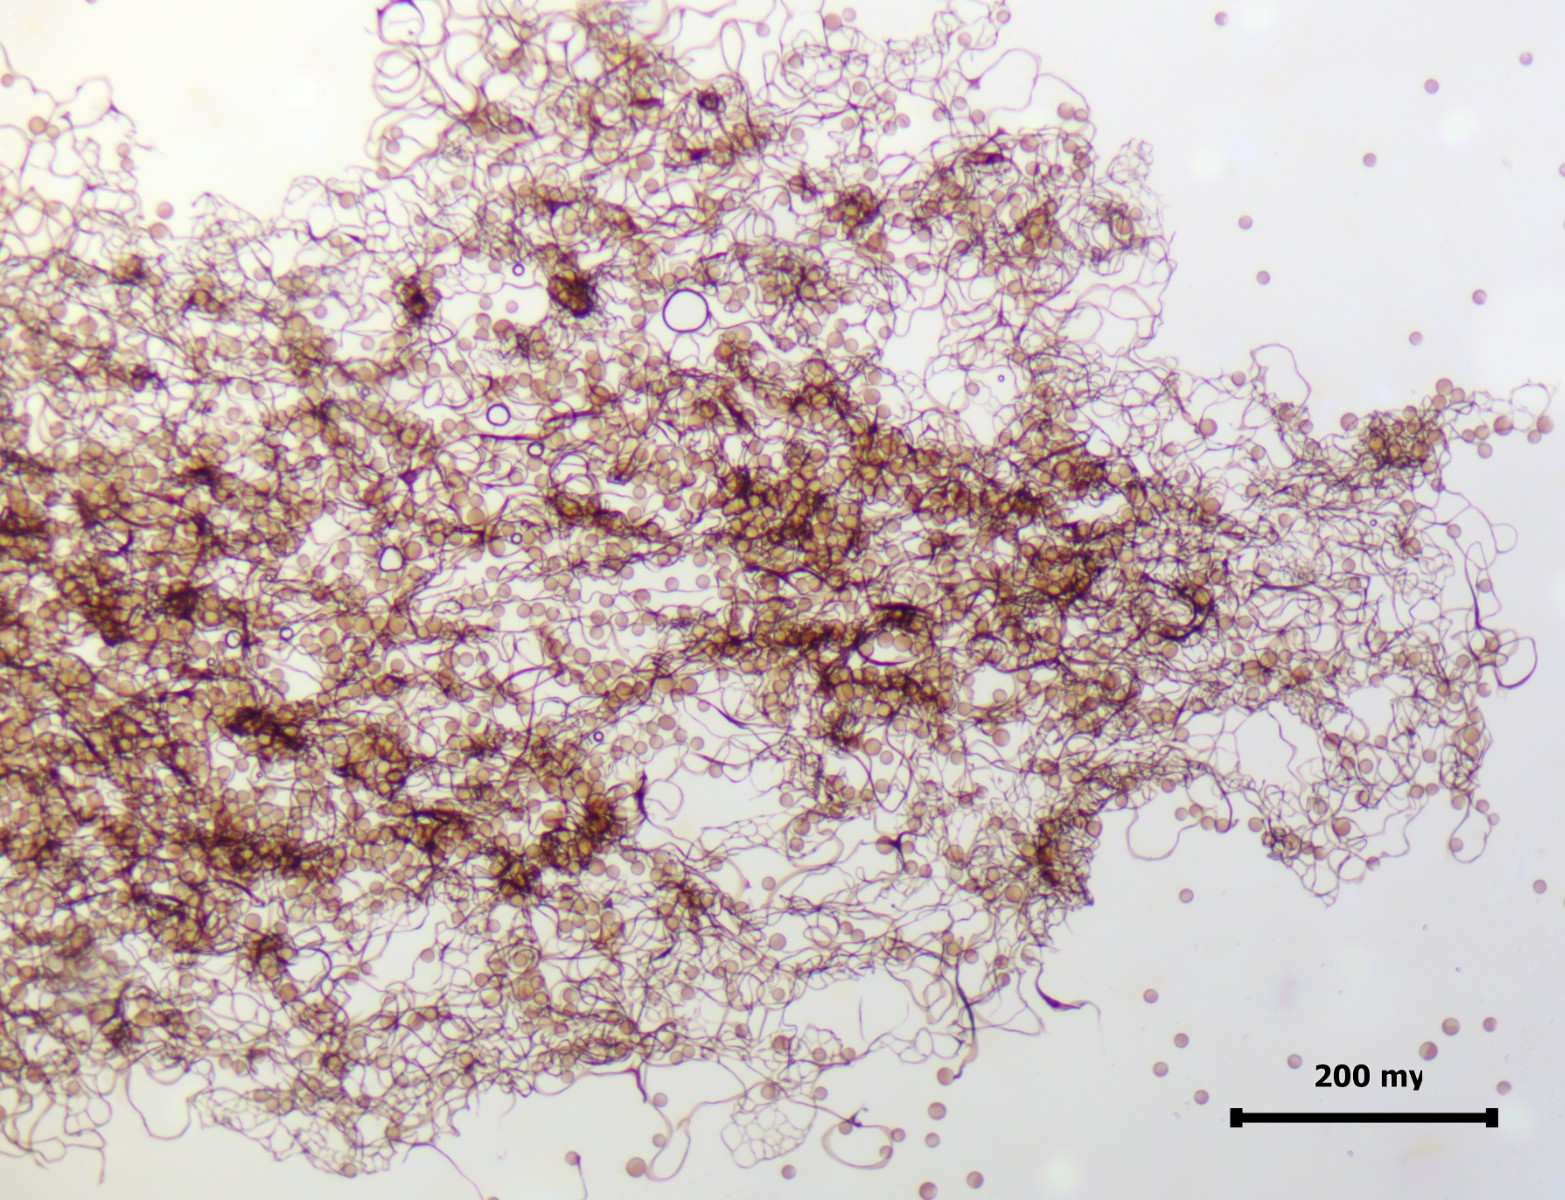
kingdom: Protozoa
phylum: Mycetozoa
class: Myxomycetes
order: Stemonitidales
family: Stemonitidaceae
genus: Comatricha
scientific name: Comatricha alta
